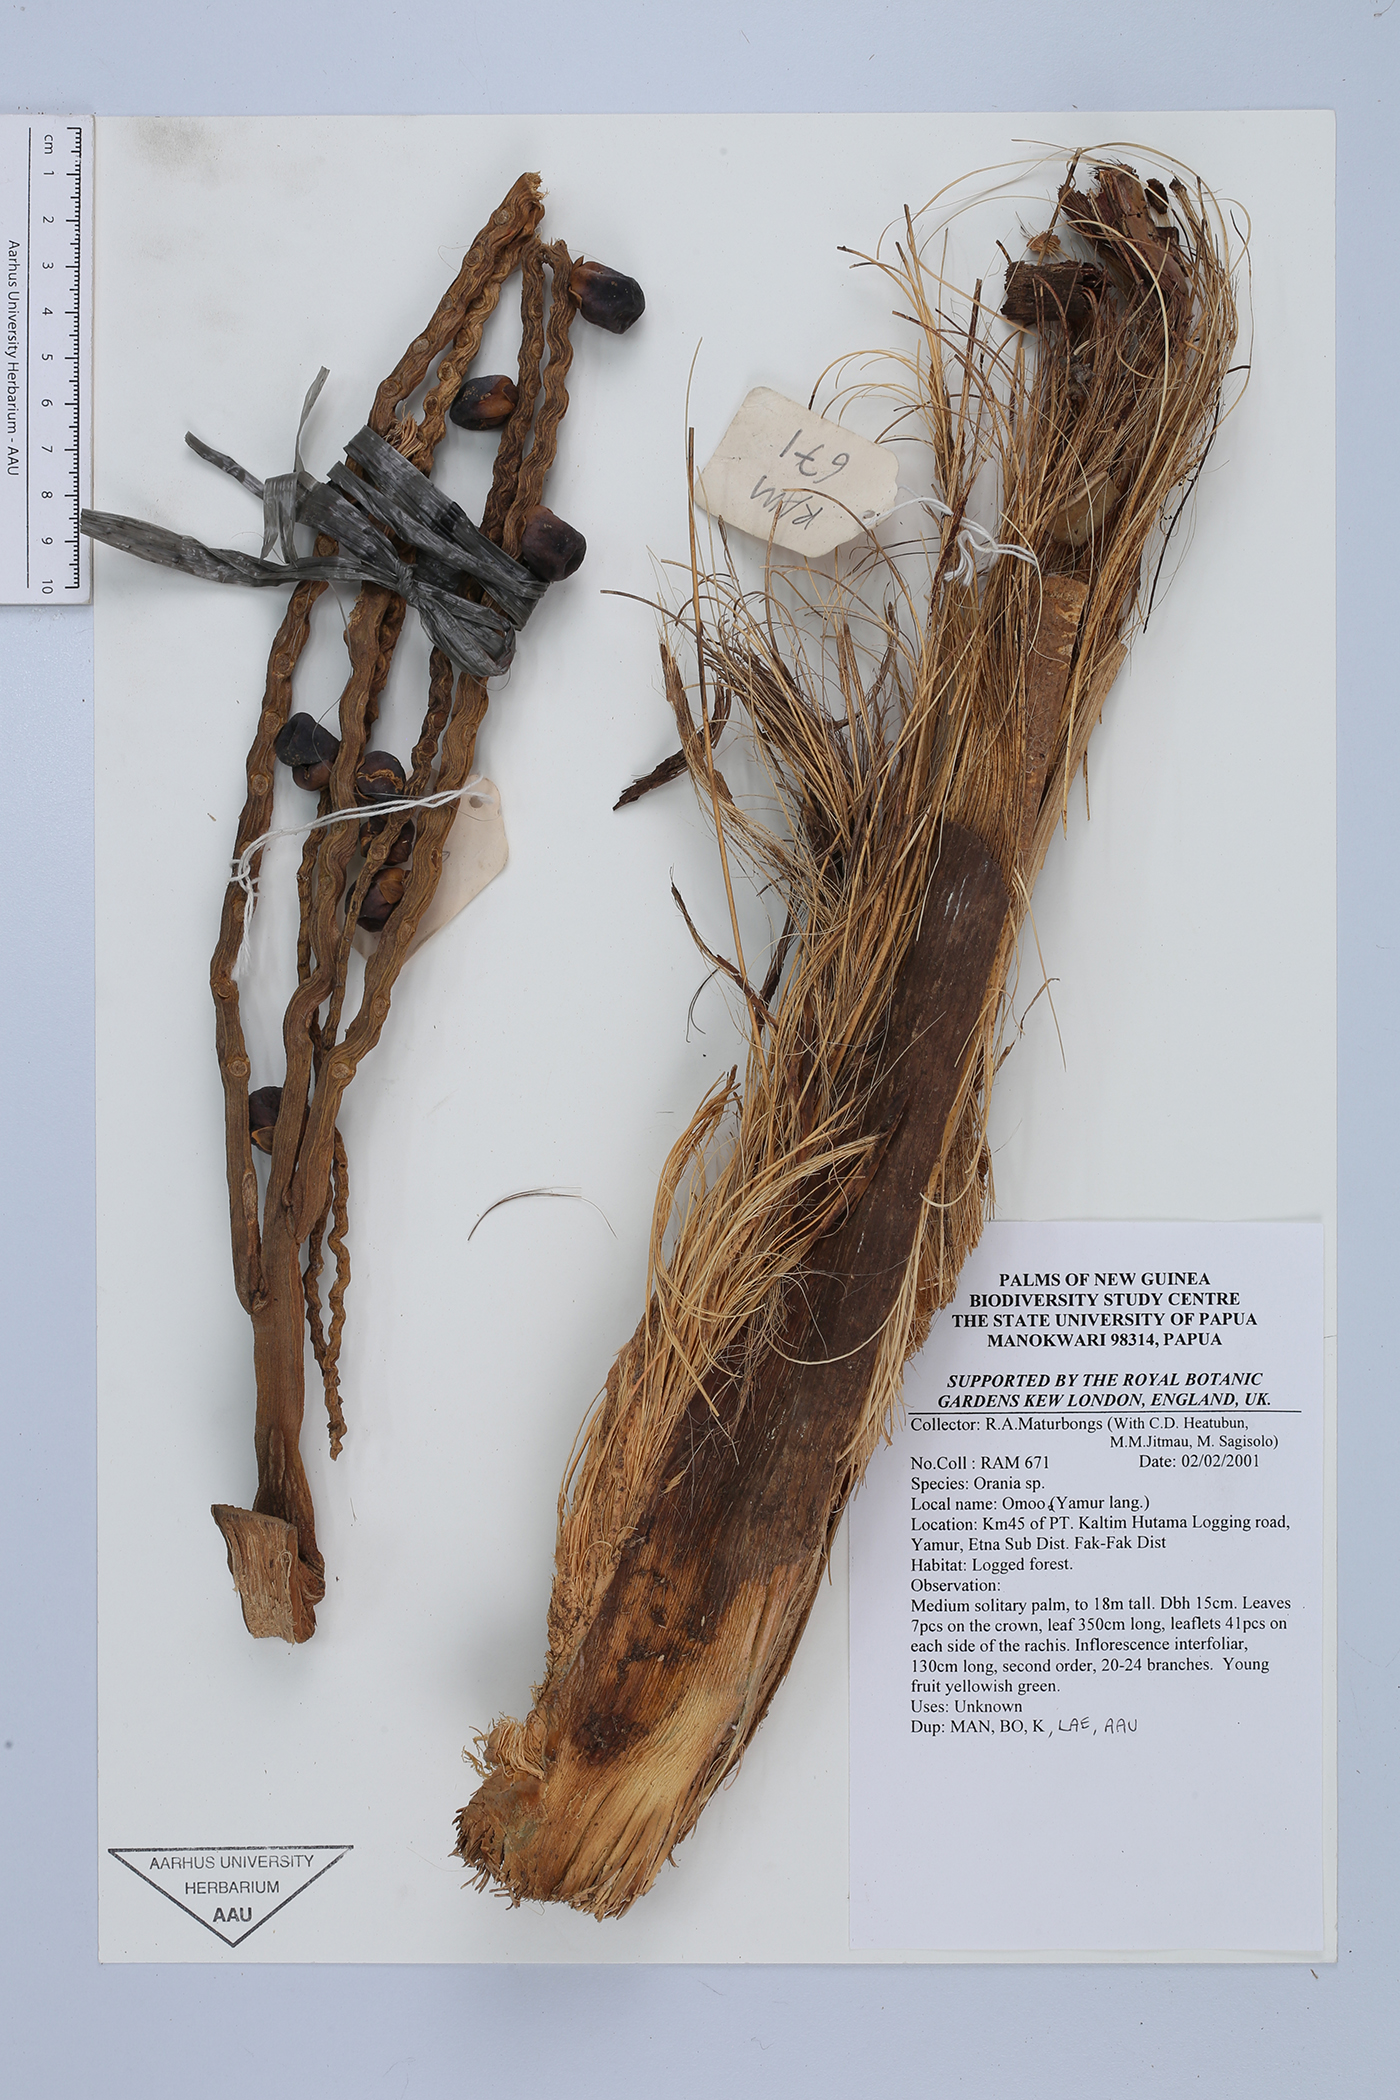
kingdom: Plantae
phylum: Tracheophyta
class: Liliopsida
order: Arecales
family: Arecaceae
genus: Orania
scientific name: Orania
